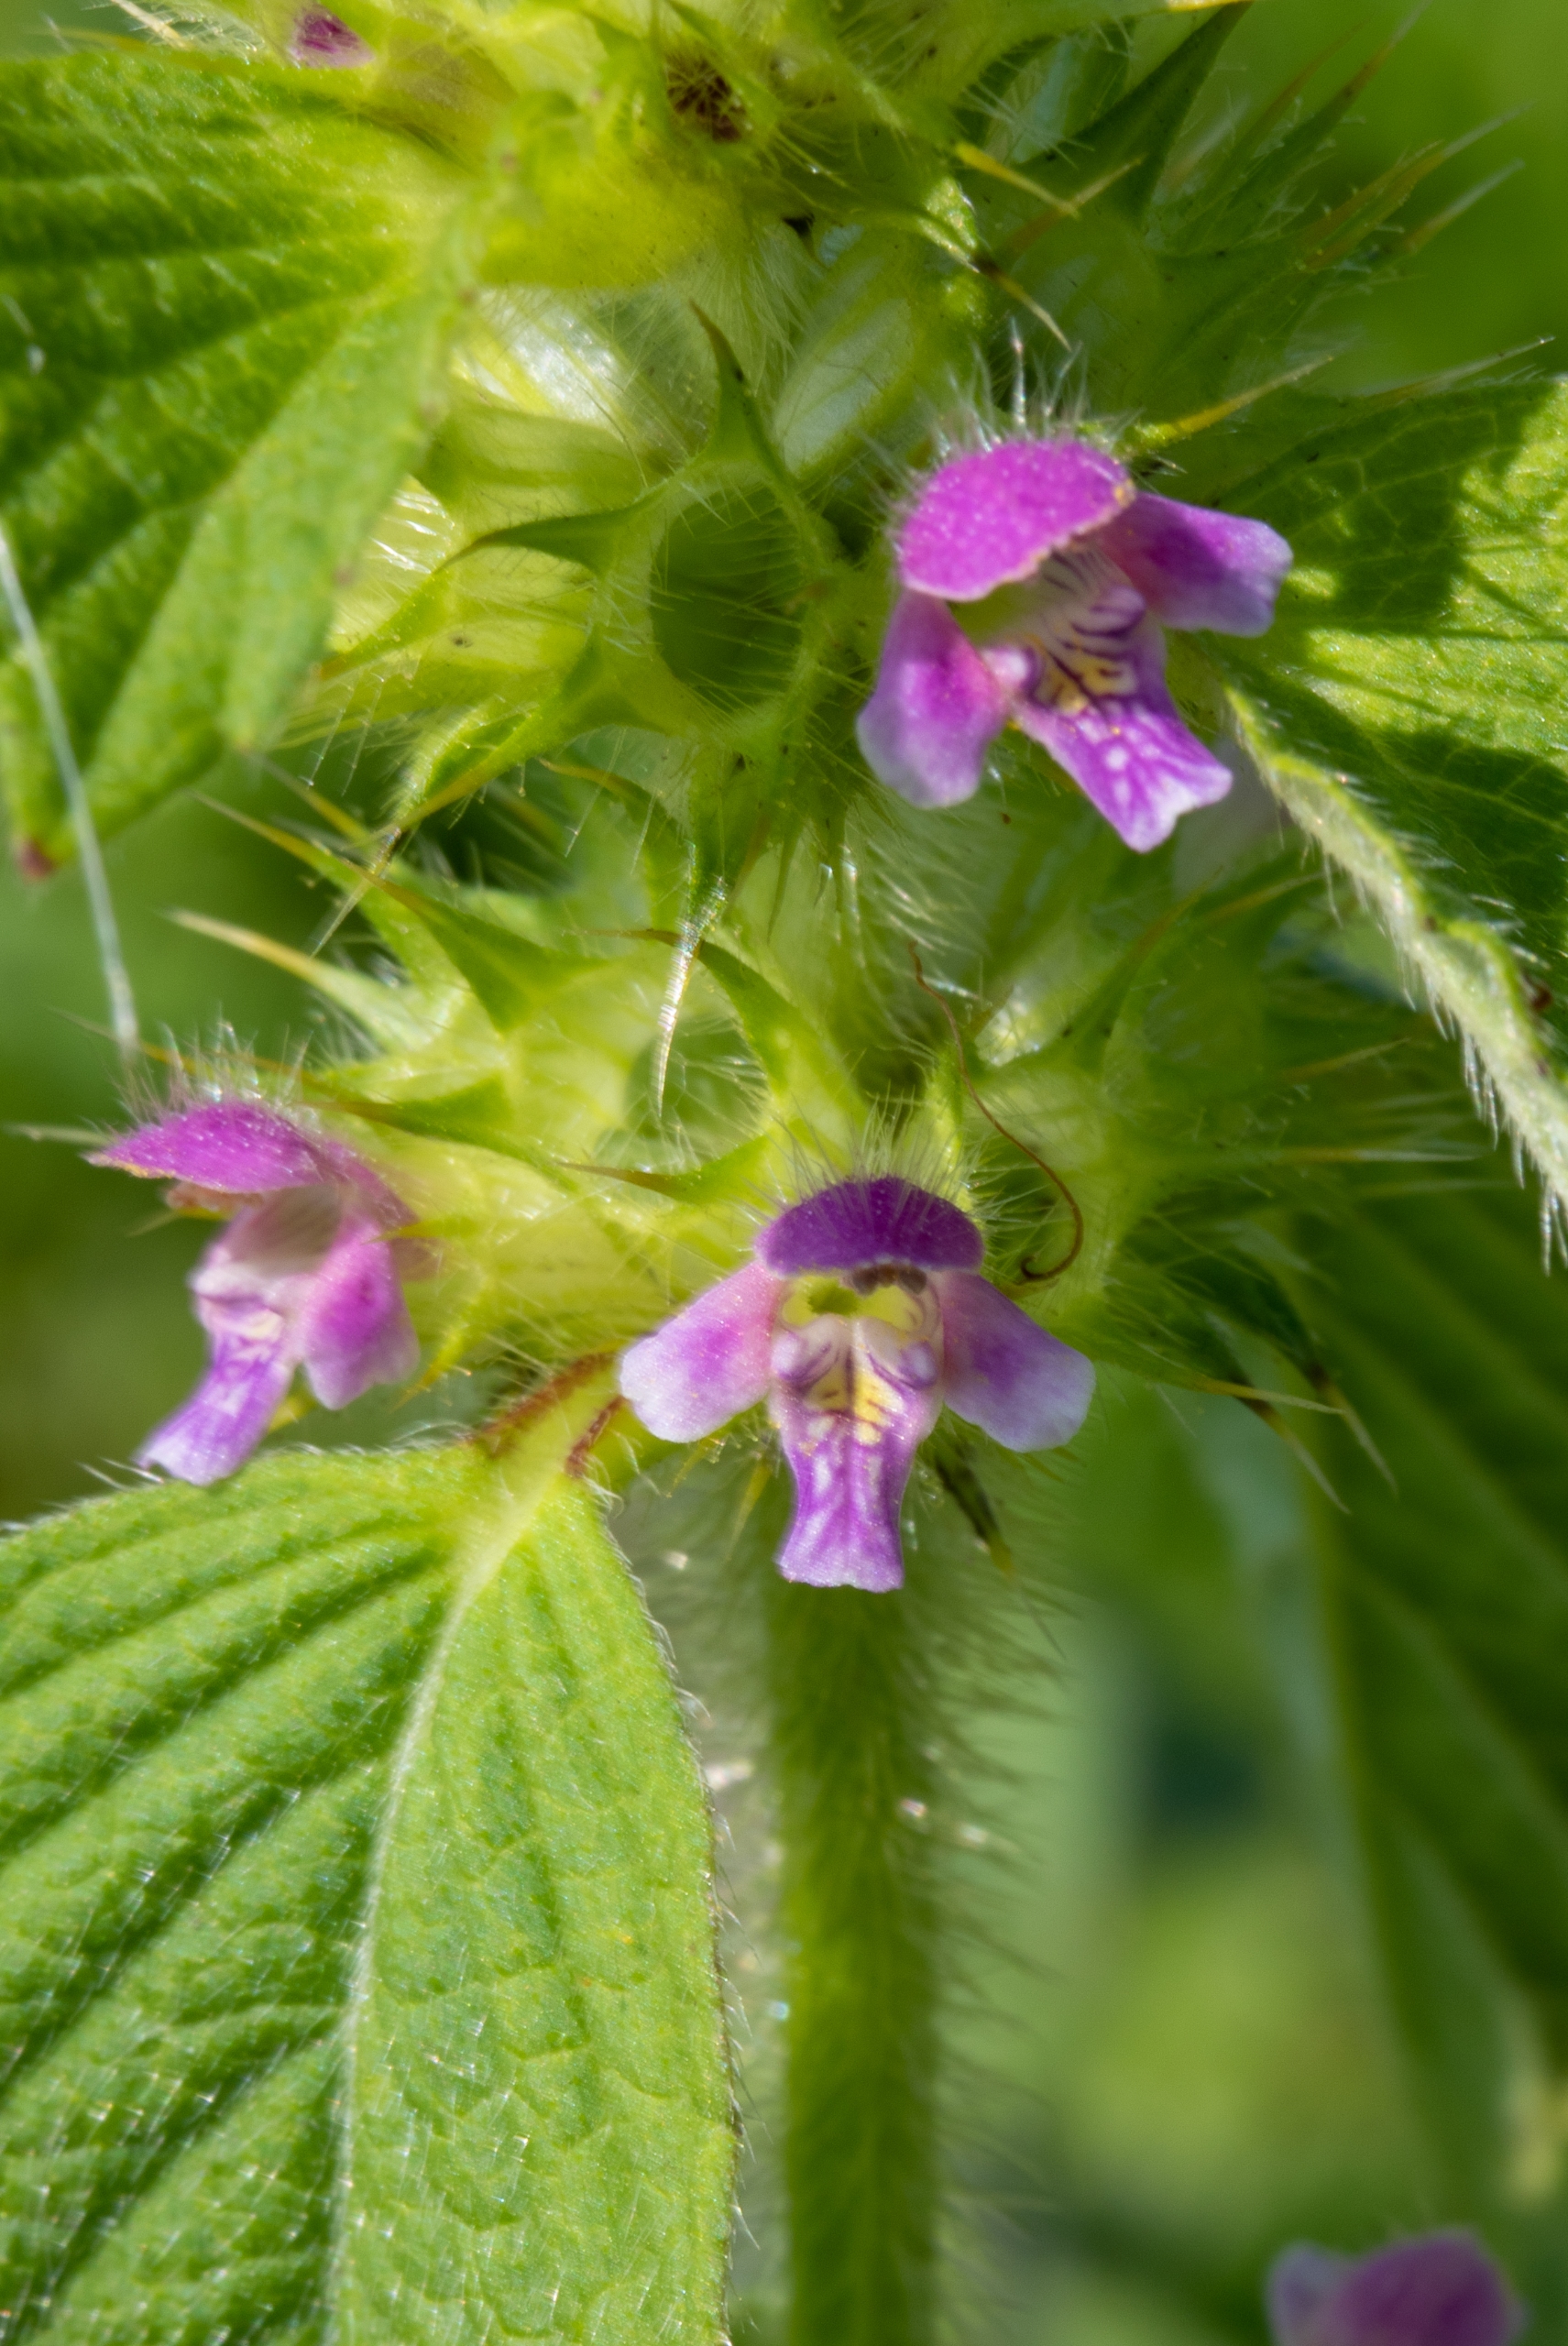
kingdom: Plantae
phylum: Tracheophyta
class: Magnoliopsida
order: Lamiales
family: Lamiaceae
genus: Galeopsis
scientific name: Galeopsis bifida
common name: Skov-hanekro
